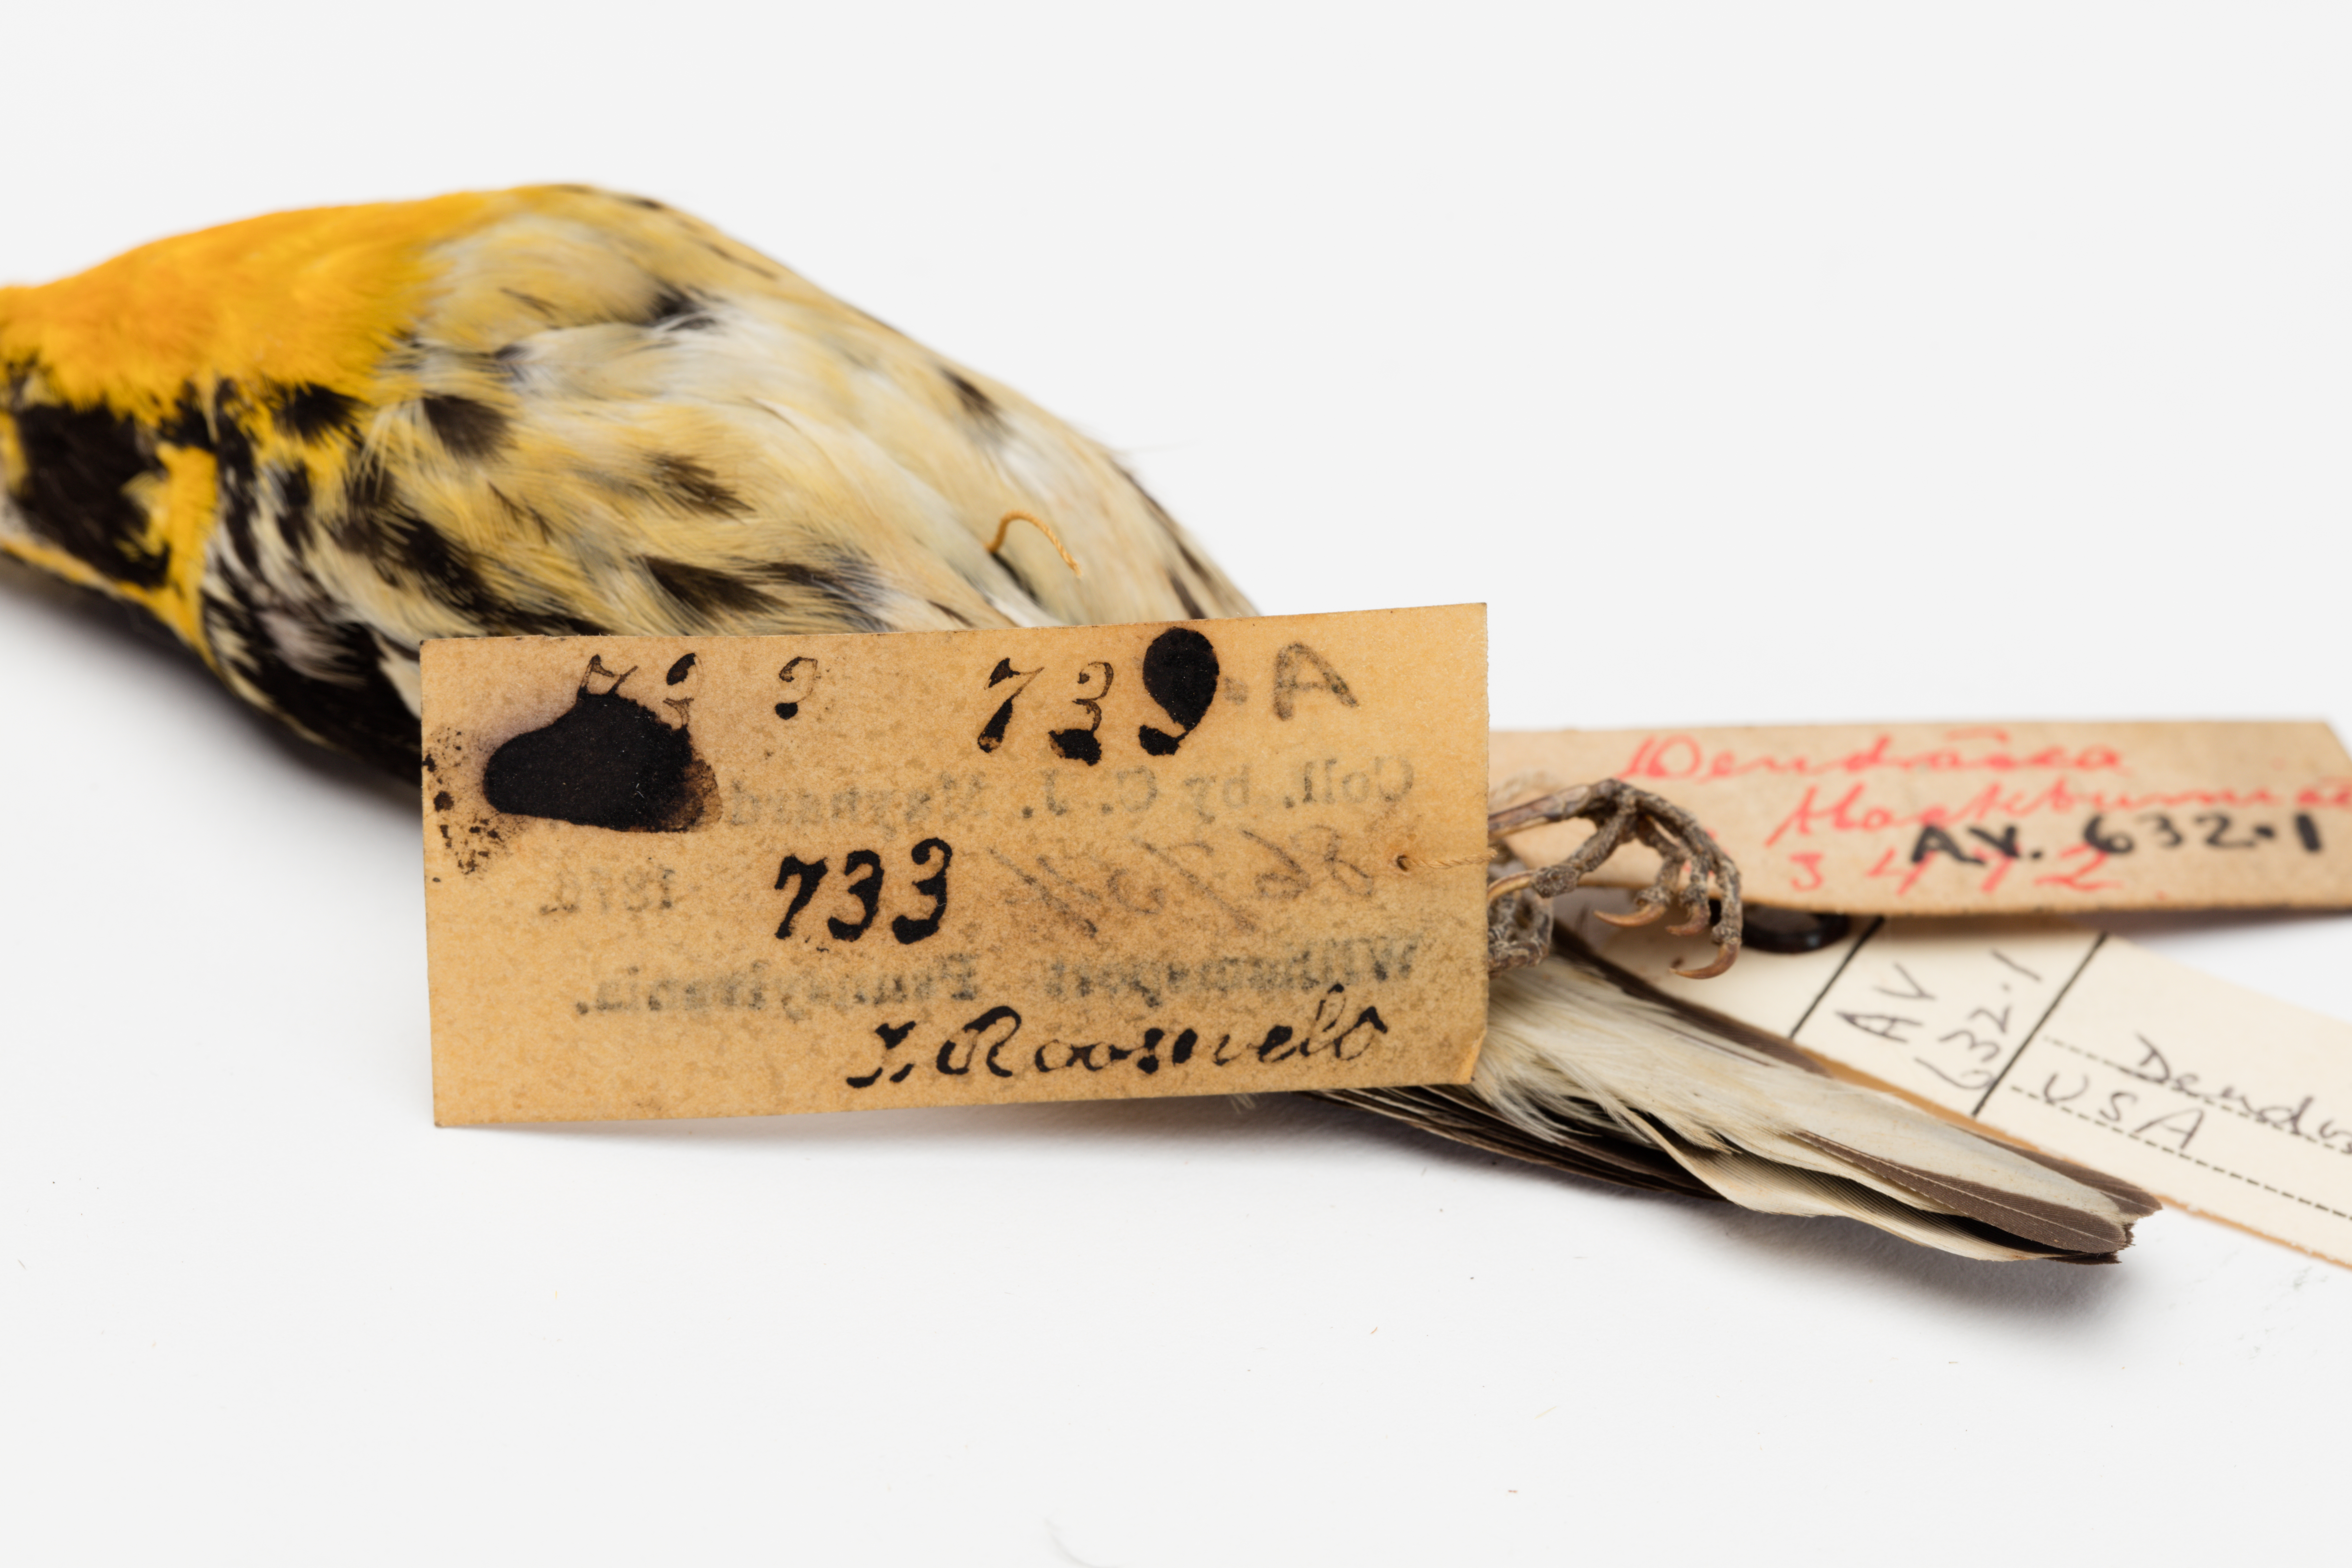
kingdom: Animalia
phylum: Chordata
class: Aves
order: Passeriformes
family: Parulidae
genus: Setophaga
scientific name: Setophaga fusca
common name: Blackburnian warbler
